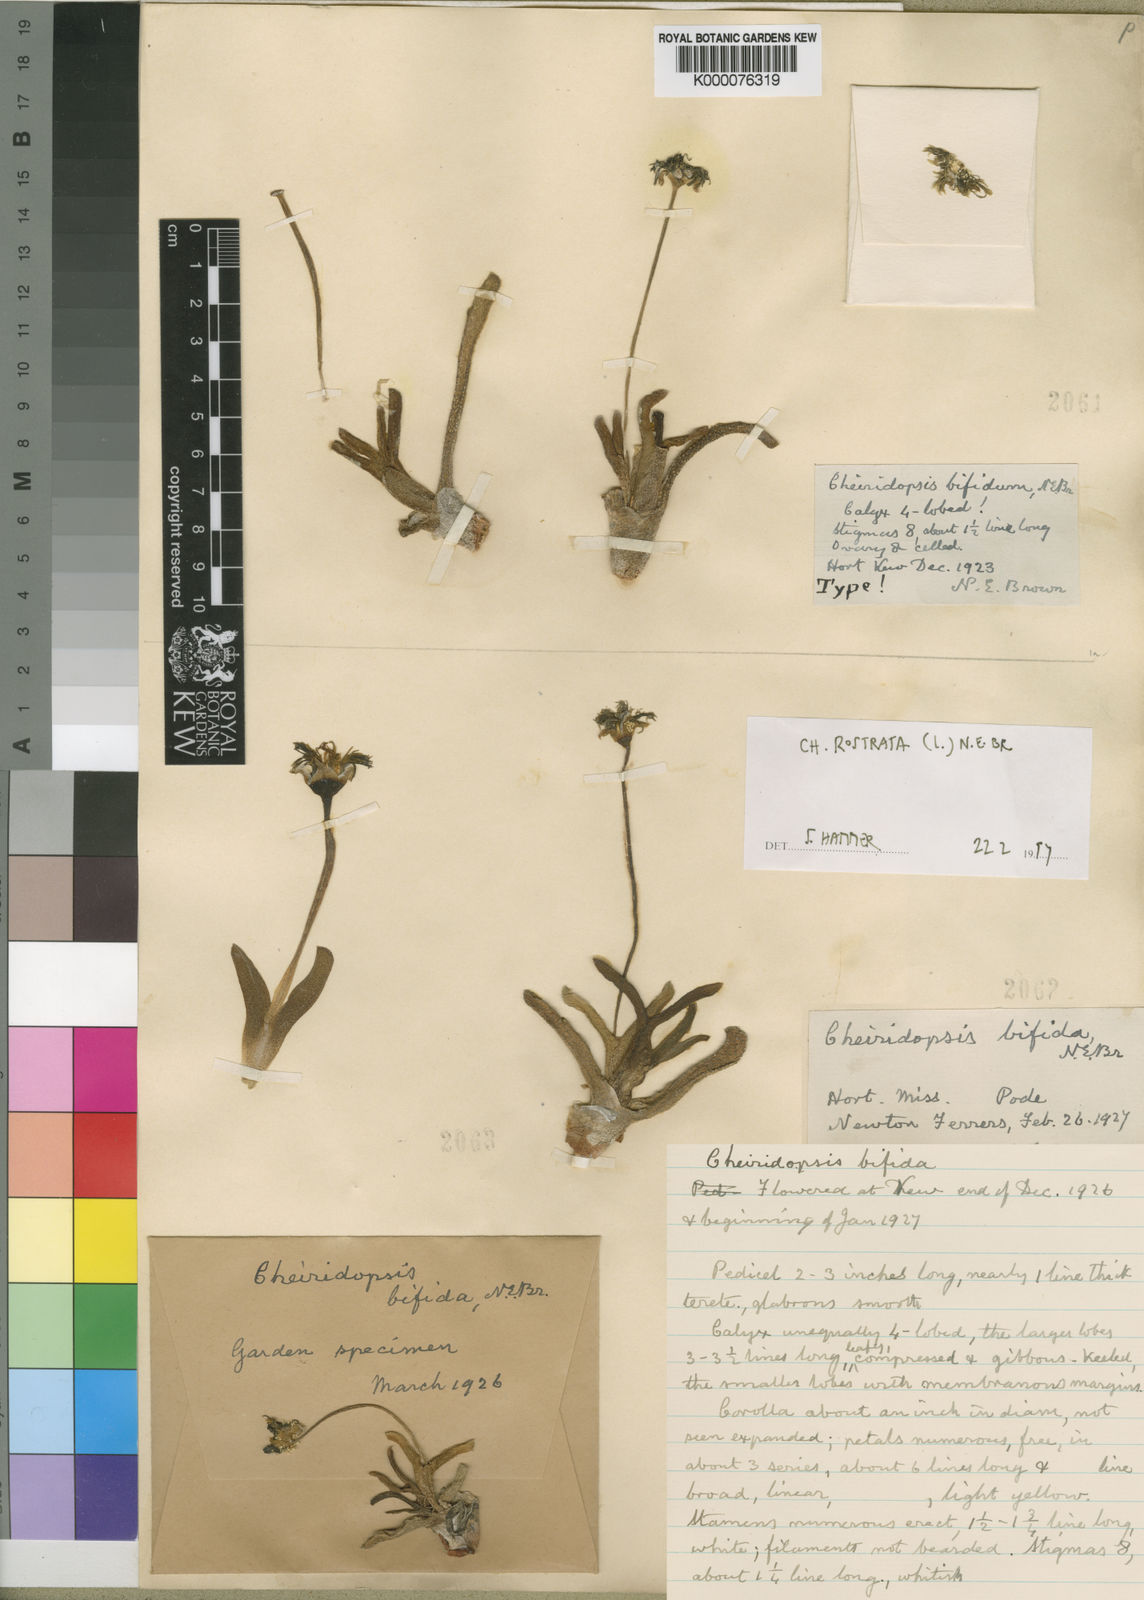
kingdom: Plantae
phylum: Tracheophyta
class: Magnoliopsida
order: Caryophyllales
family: Aizoaceae
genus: Cheiridopsis
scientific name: Cheiridopsis rostrata
